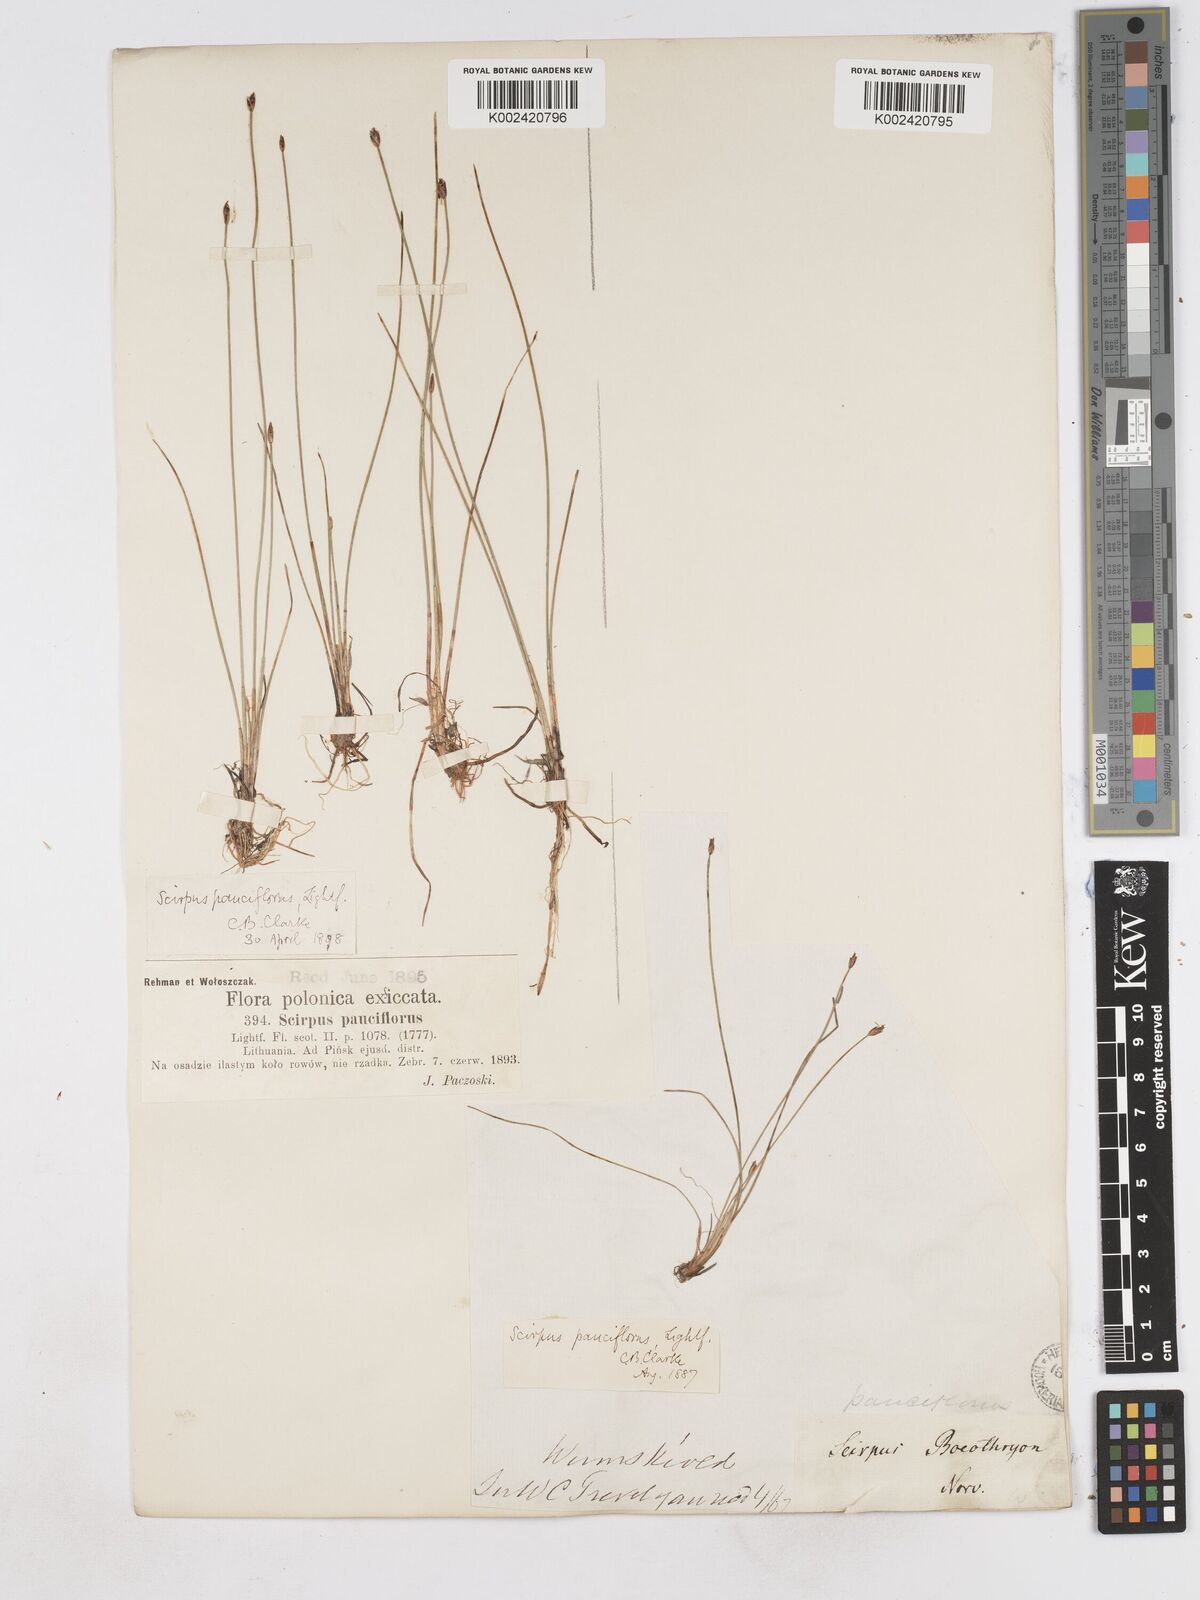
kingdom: Plantae
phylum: Tracheophyta
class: Liliopsida
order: Poales
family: Cyperaceae
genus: Eleocharis
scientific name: Eleocharis quinqueflora
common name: Few-flowered spike-rush
